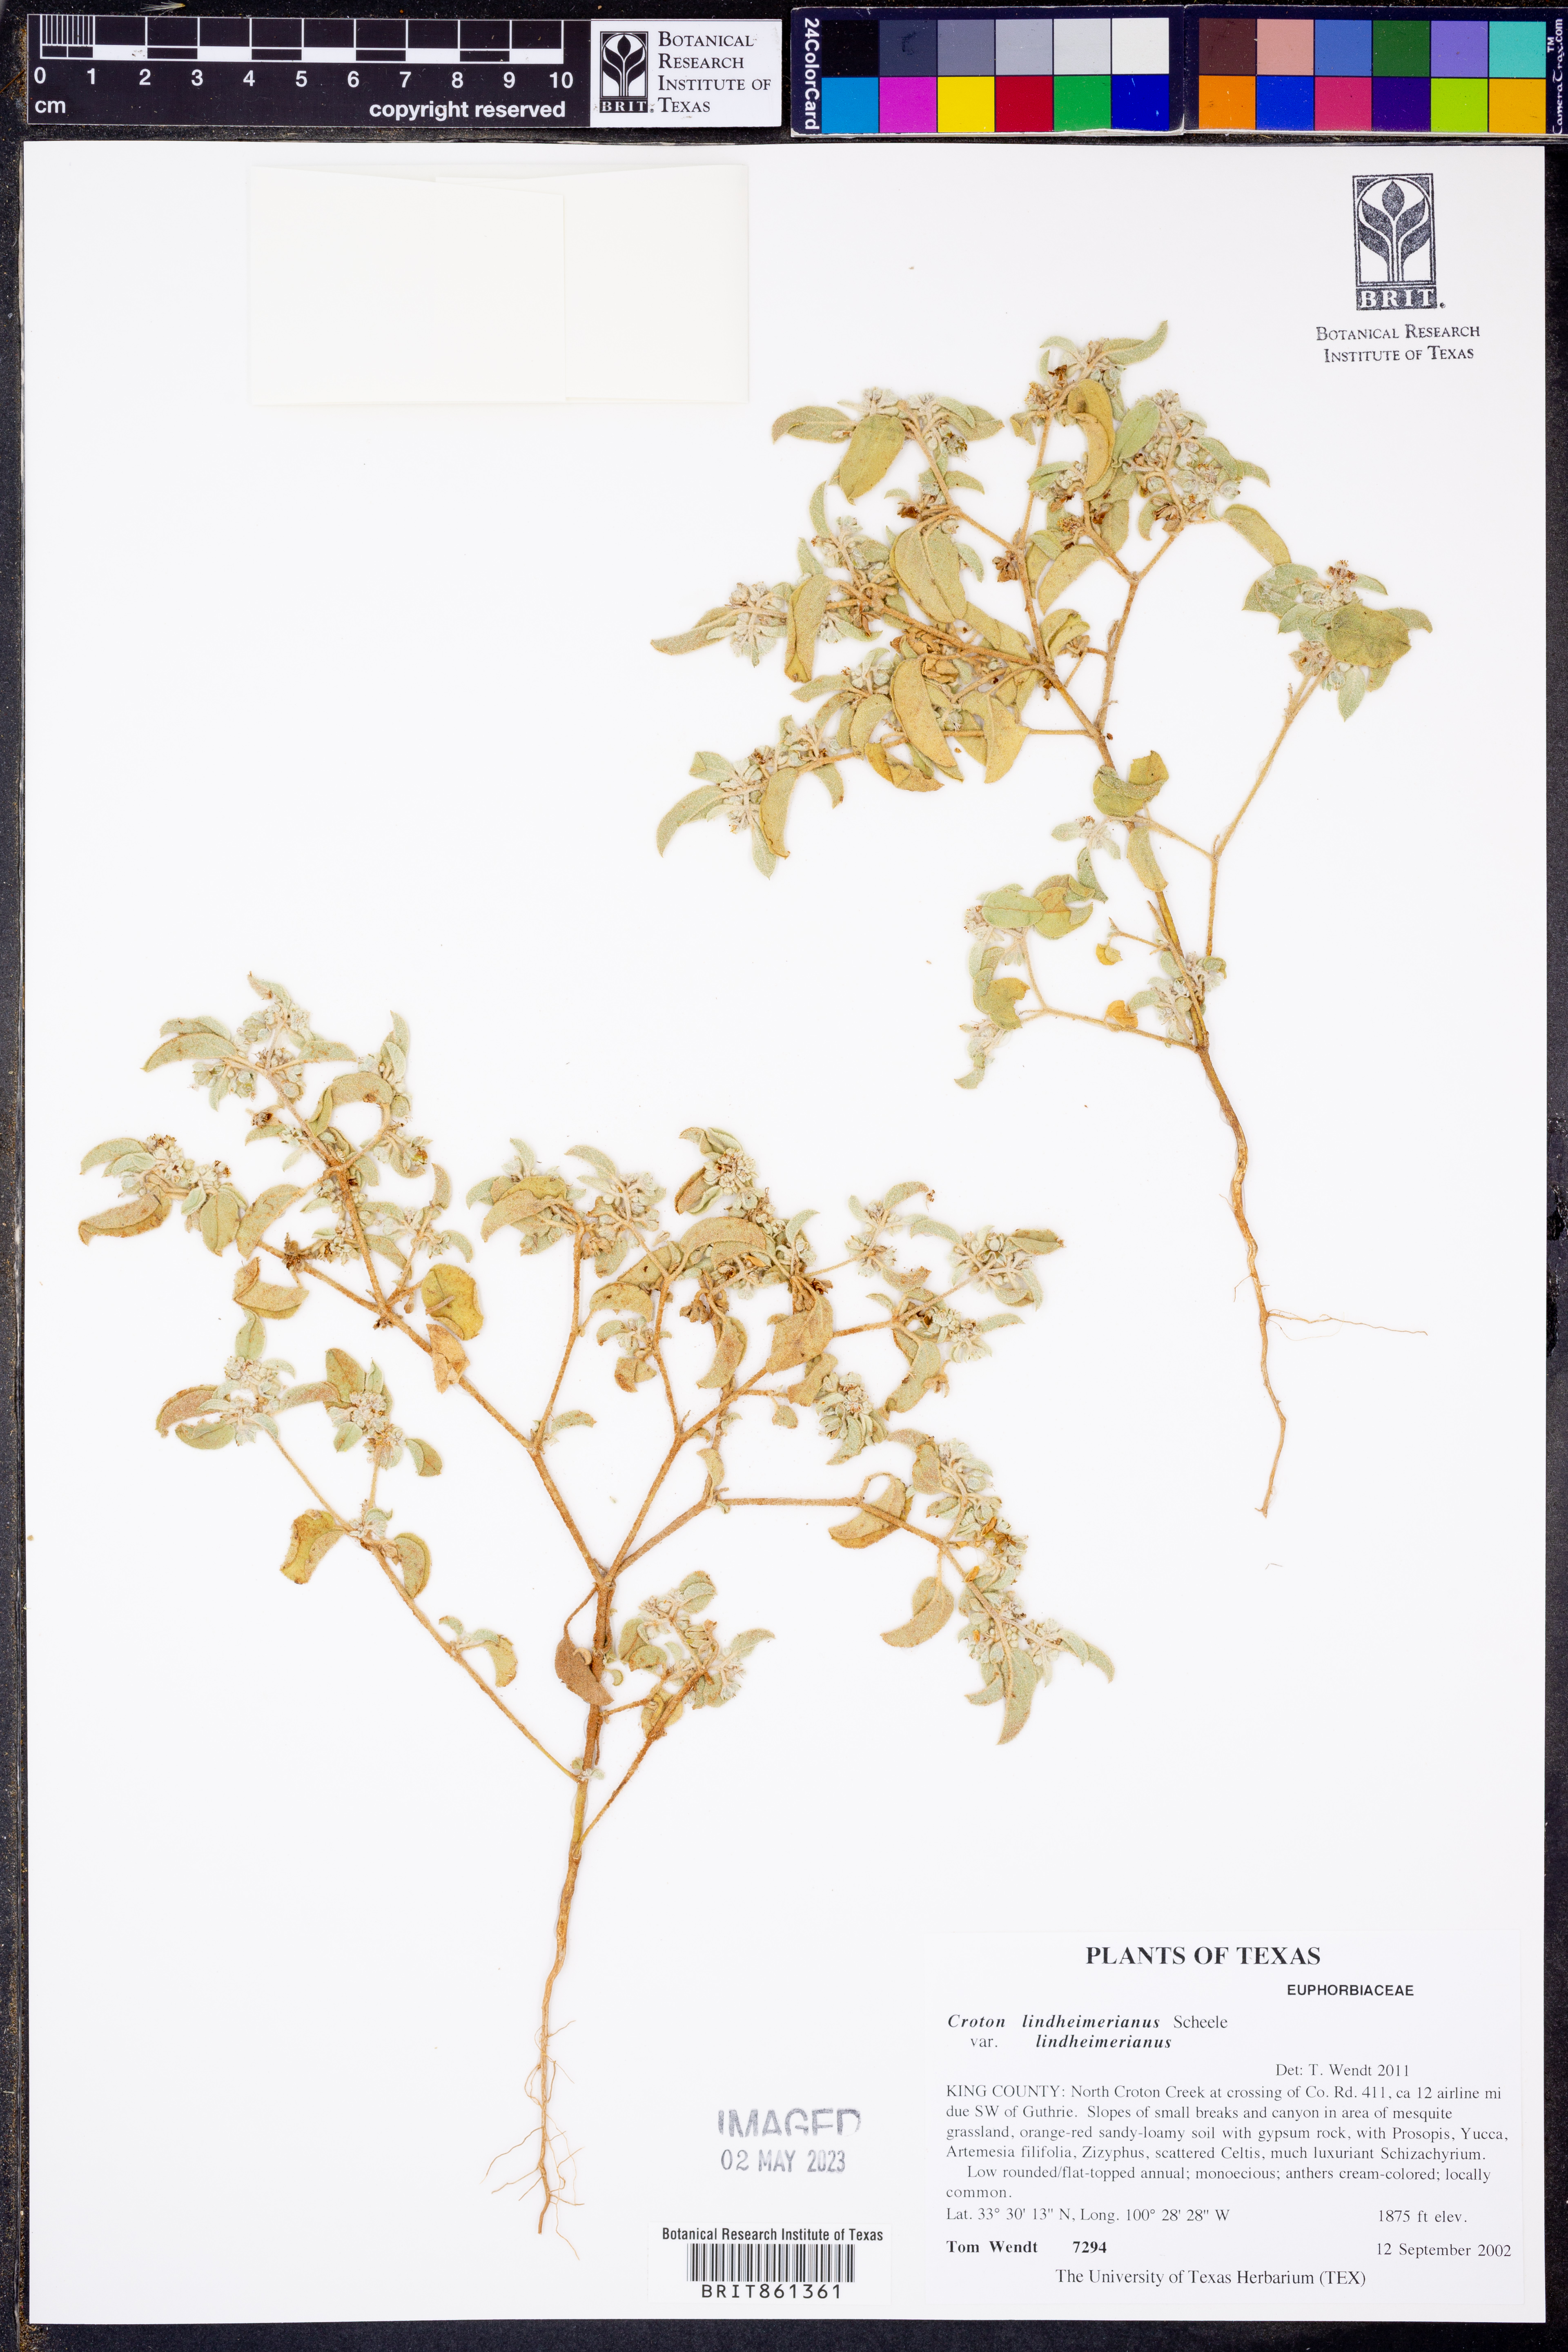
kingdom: Plantae
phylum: Tracheophyta
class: Magnoliopsida
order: Malpighiales
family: Euphorbiaceae
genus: Croton
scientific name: Croton lindheimerianus
